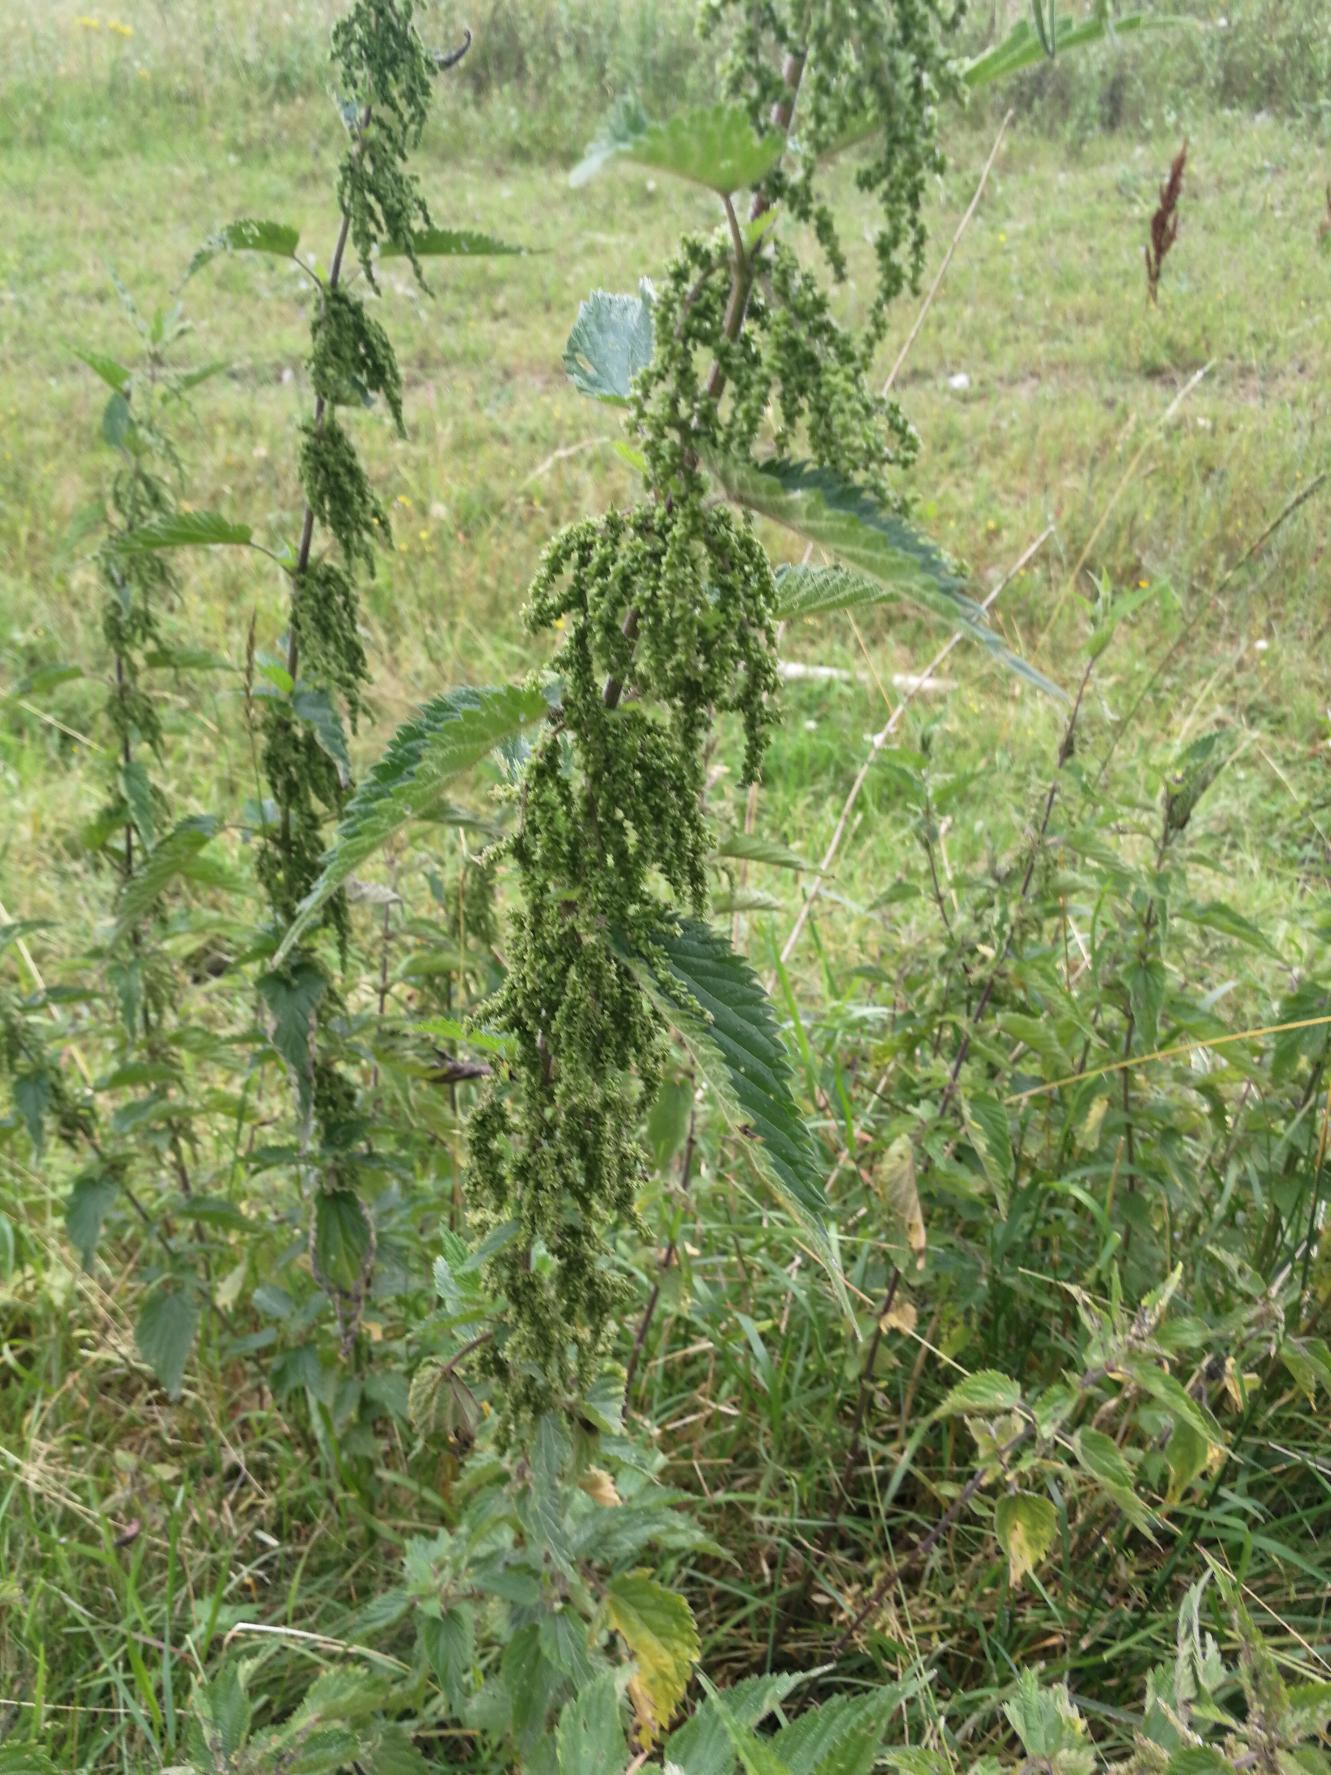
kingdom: Plantae
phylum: Tracheophyta
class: Magnoliopsida
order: Rosales
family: Urticaceae
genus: Urtica
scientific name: Urtica dioica
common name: Stor nælde
